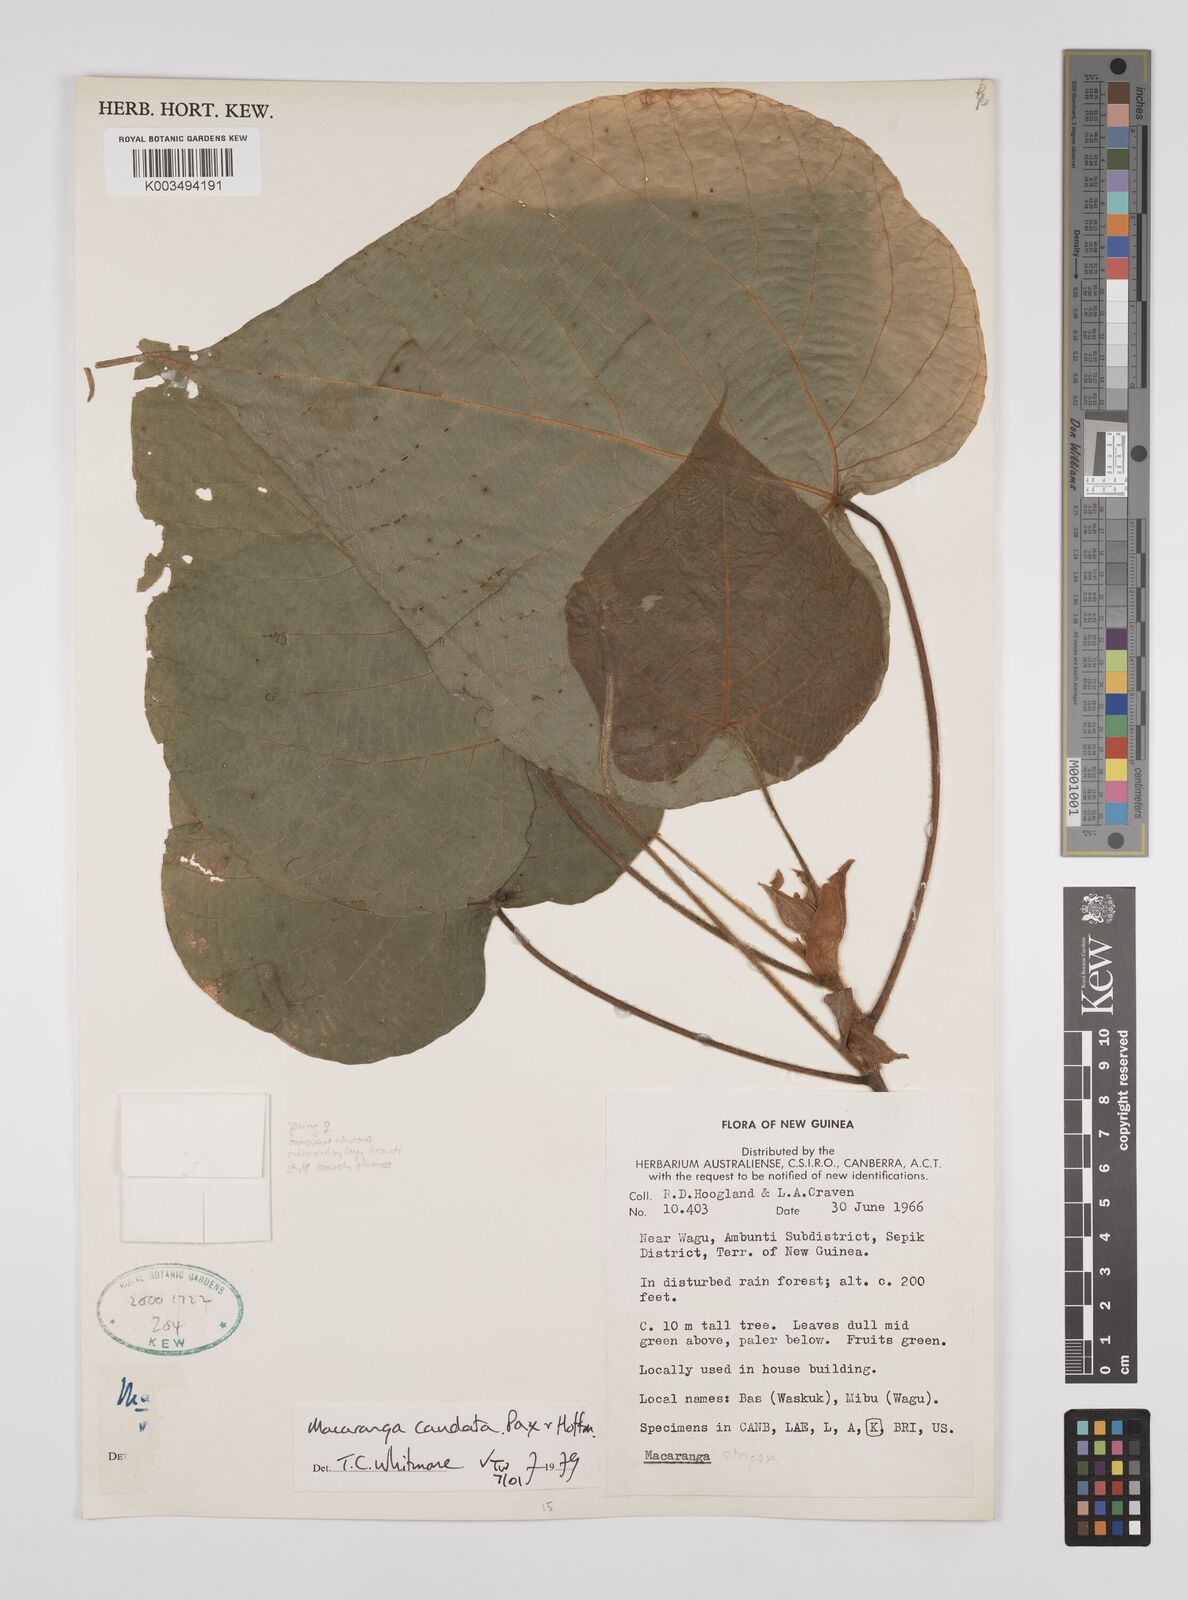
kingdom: Plantae
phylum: Tracheophyta
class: Magnoliopsida
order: Malpighiales
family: Euphorbiaceae
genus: Macaranga
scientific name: Macaranga caudata
